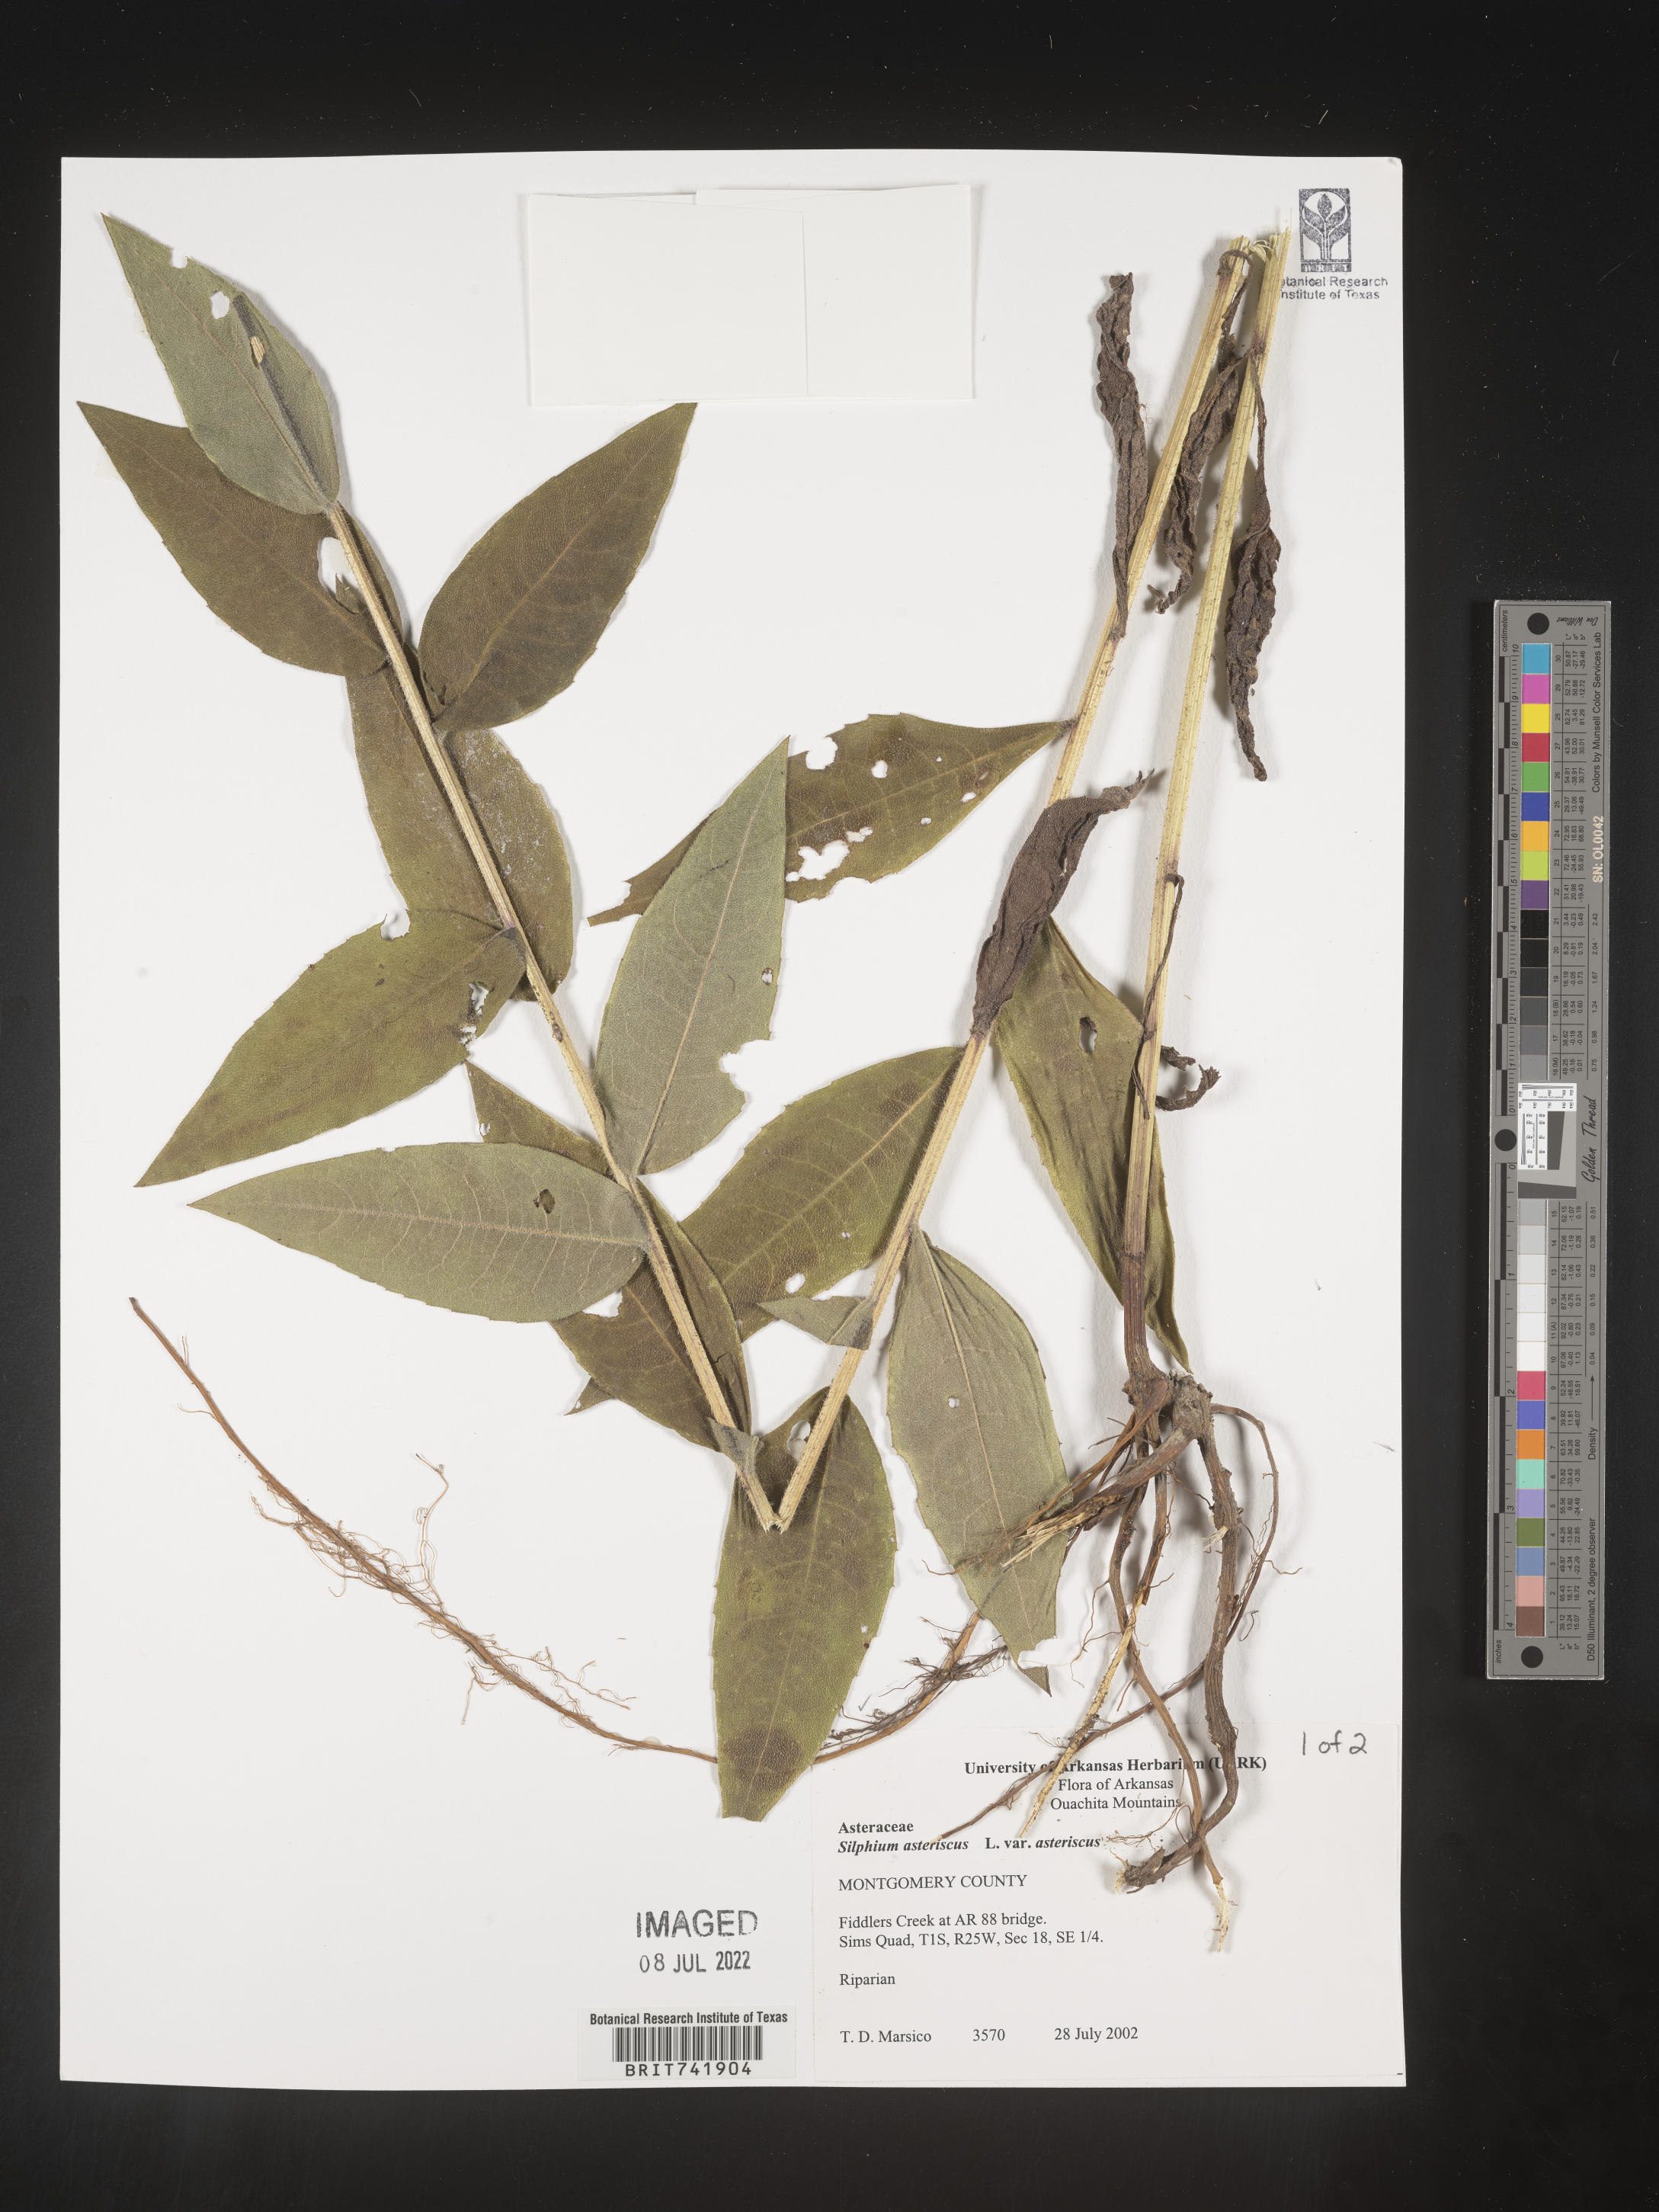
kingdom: Plantae
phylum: Tracheophyta
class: Magnoliopsida
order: Asterales
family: Asteraceae
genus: Silphium
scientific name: Silphium asperrimum
